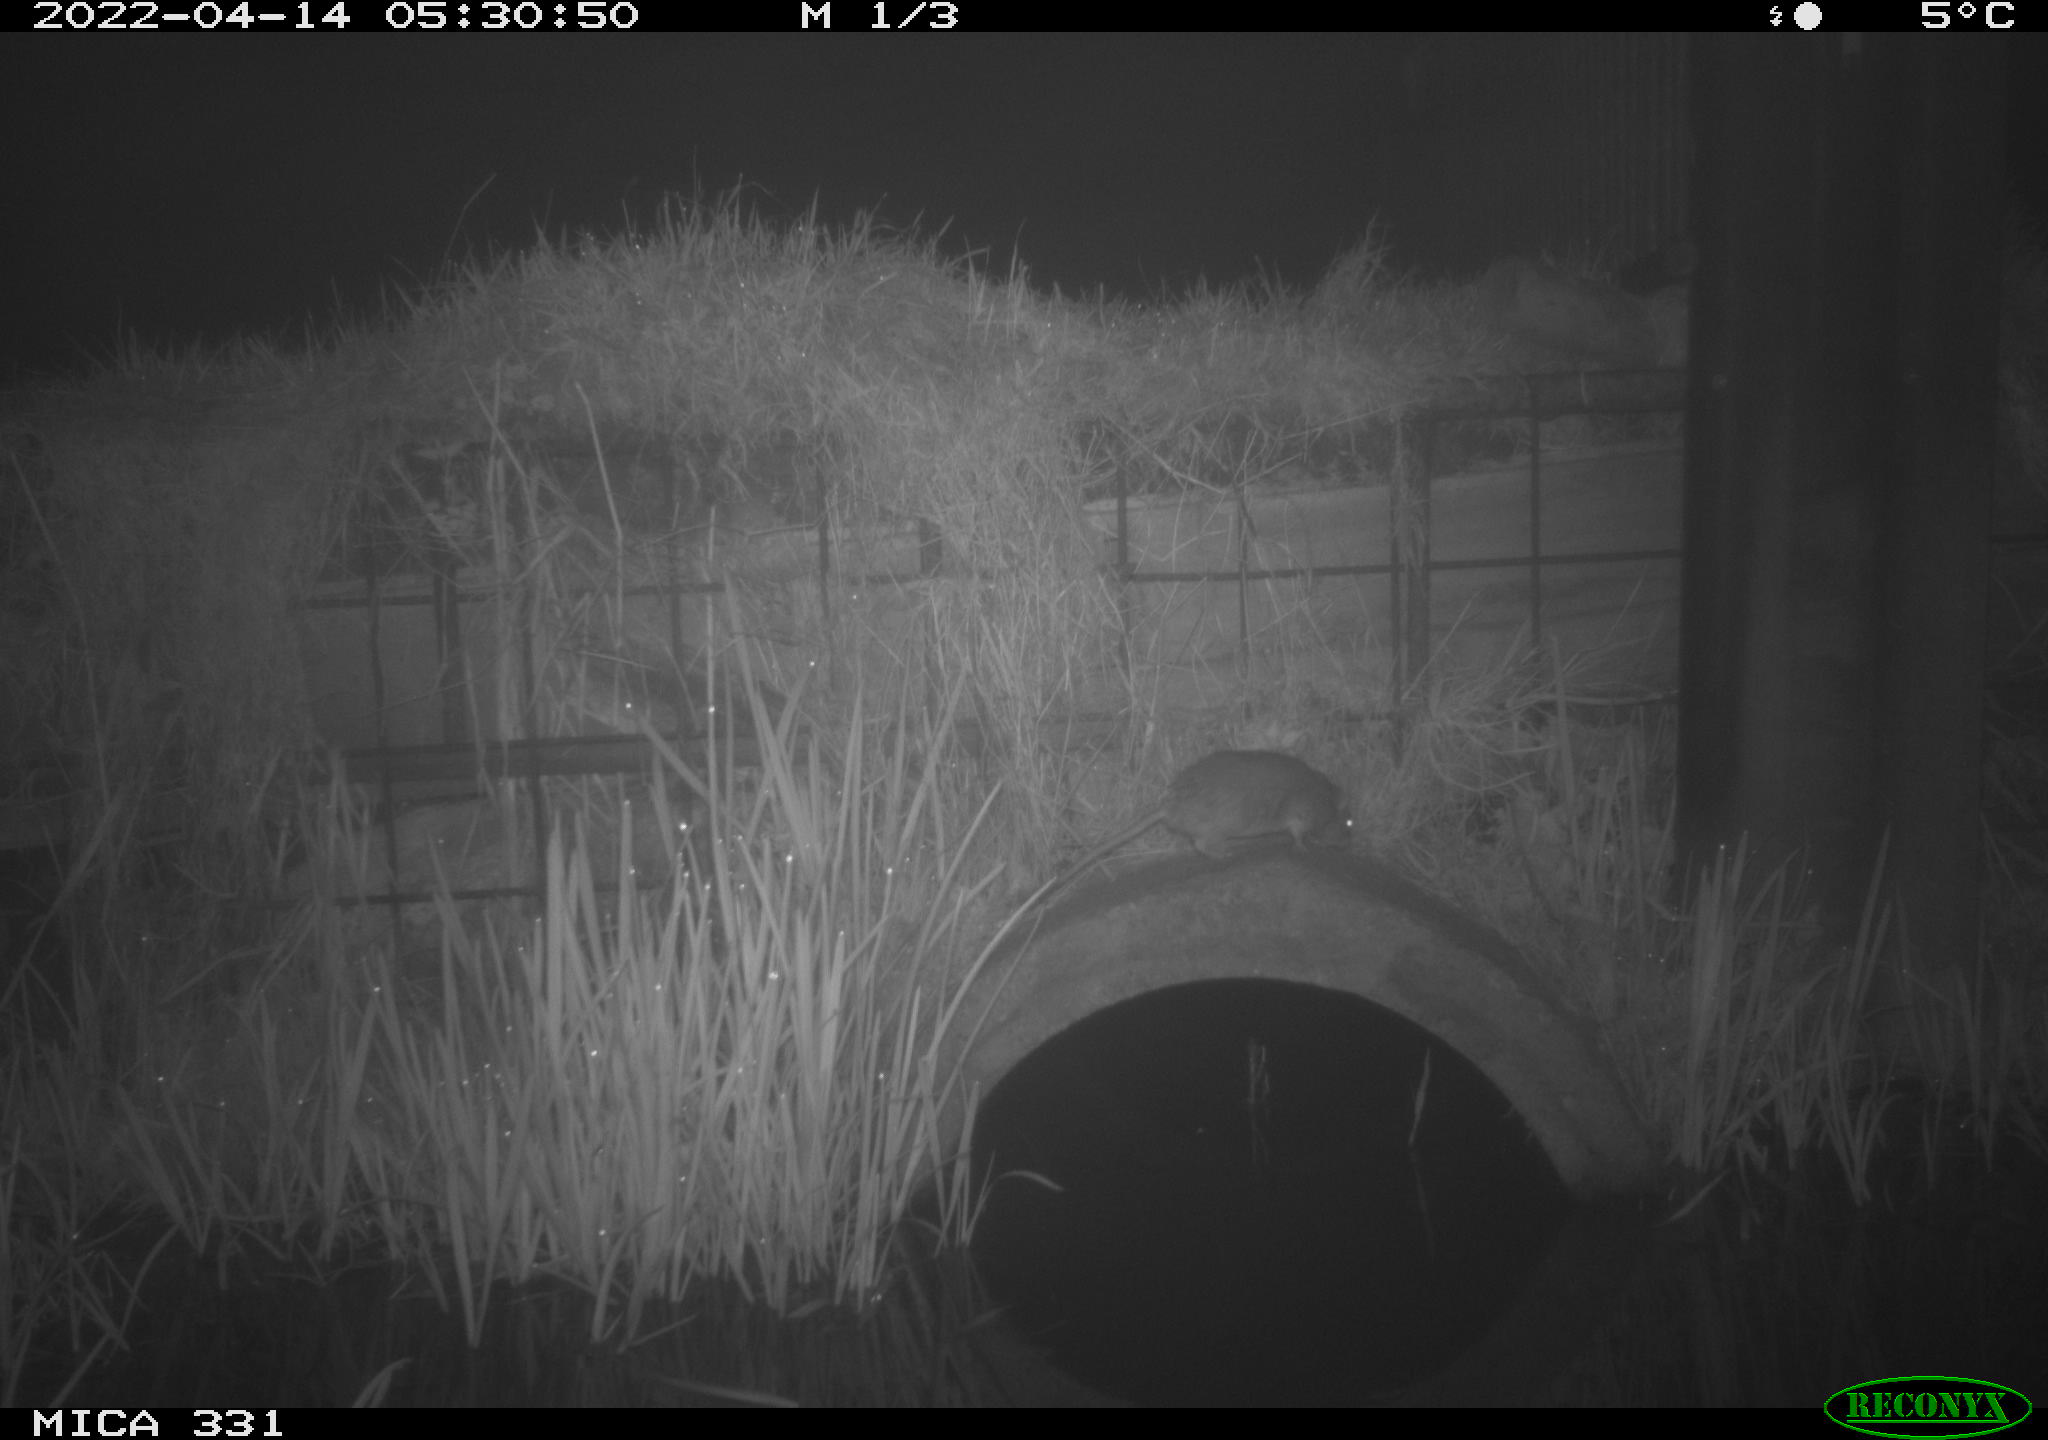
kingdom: Animalia
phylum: Chordata
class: Mammalia
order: Rodentia
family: Muridae
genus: Rattus
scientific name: Rattus norvegicus
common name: Brown rat
